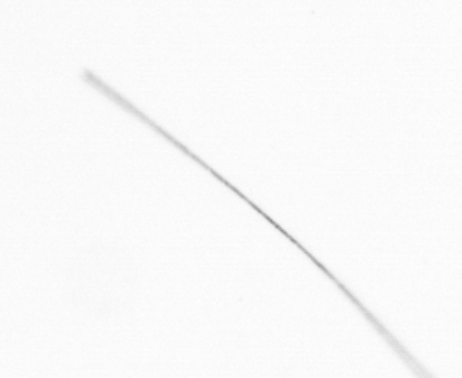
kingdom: Chromista
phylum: Ochrophyta
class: Bacillariophyceae
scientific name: Bacillariophyceae
